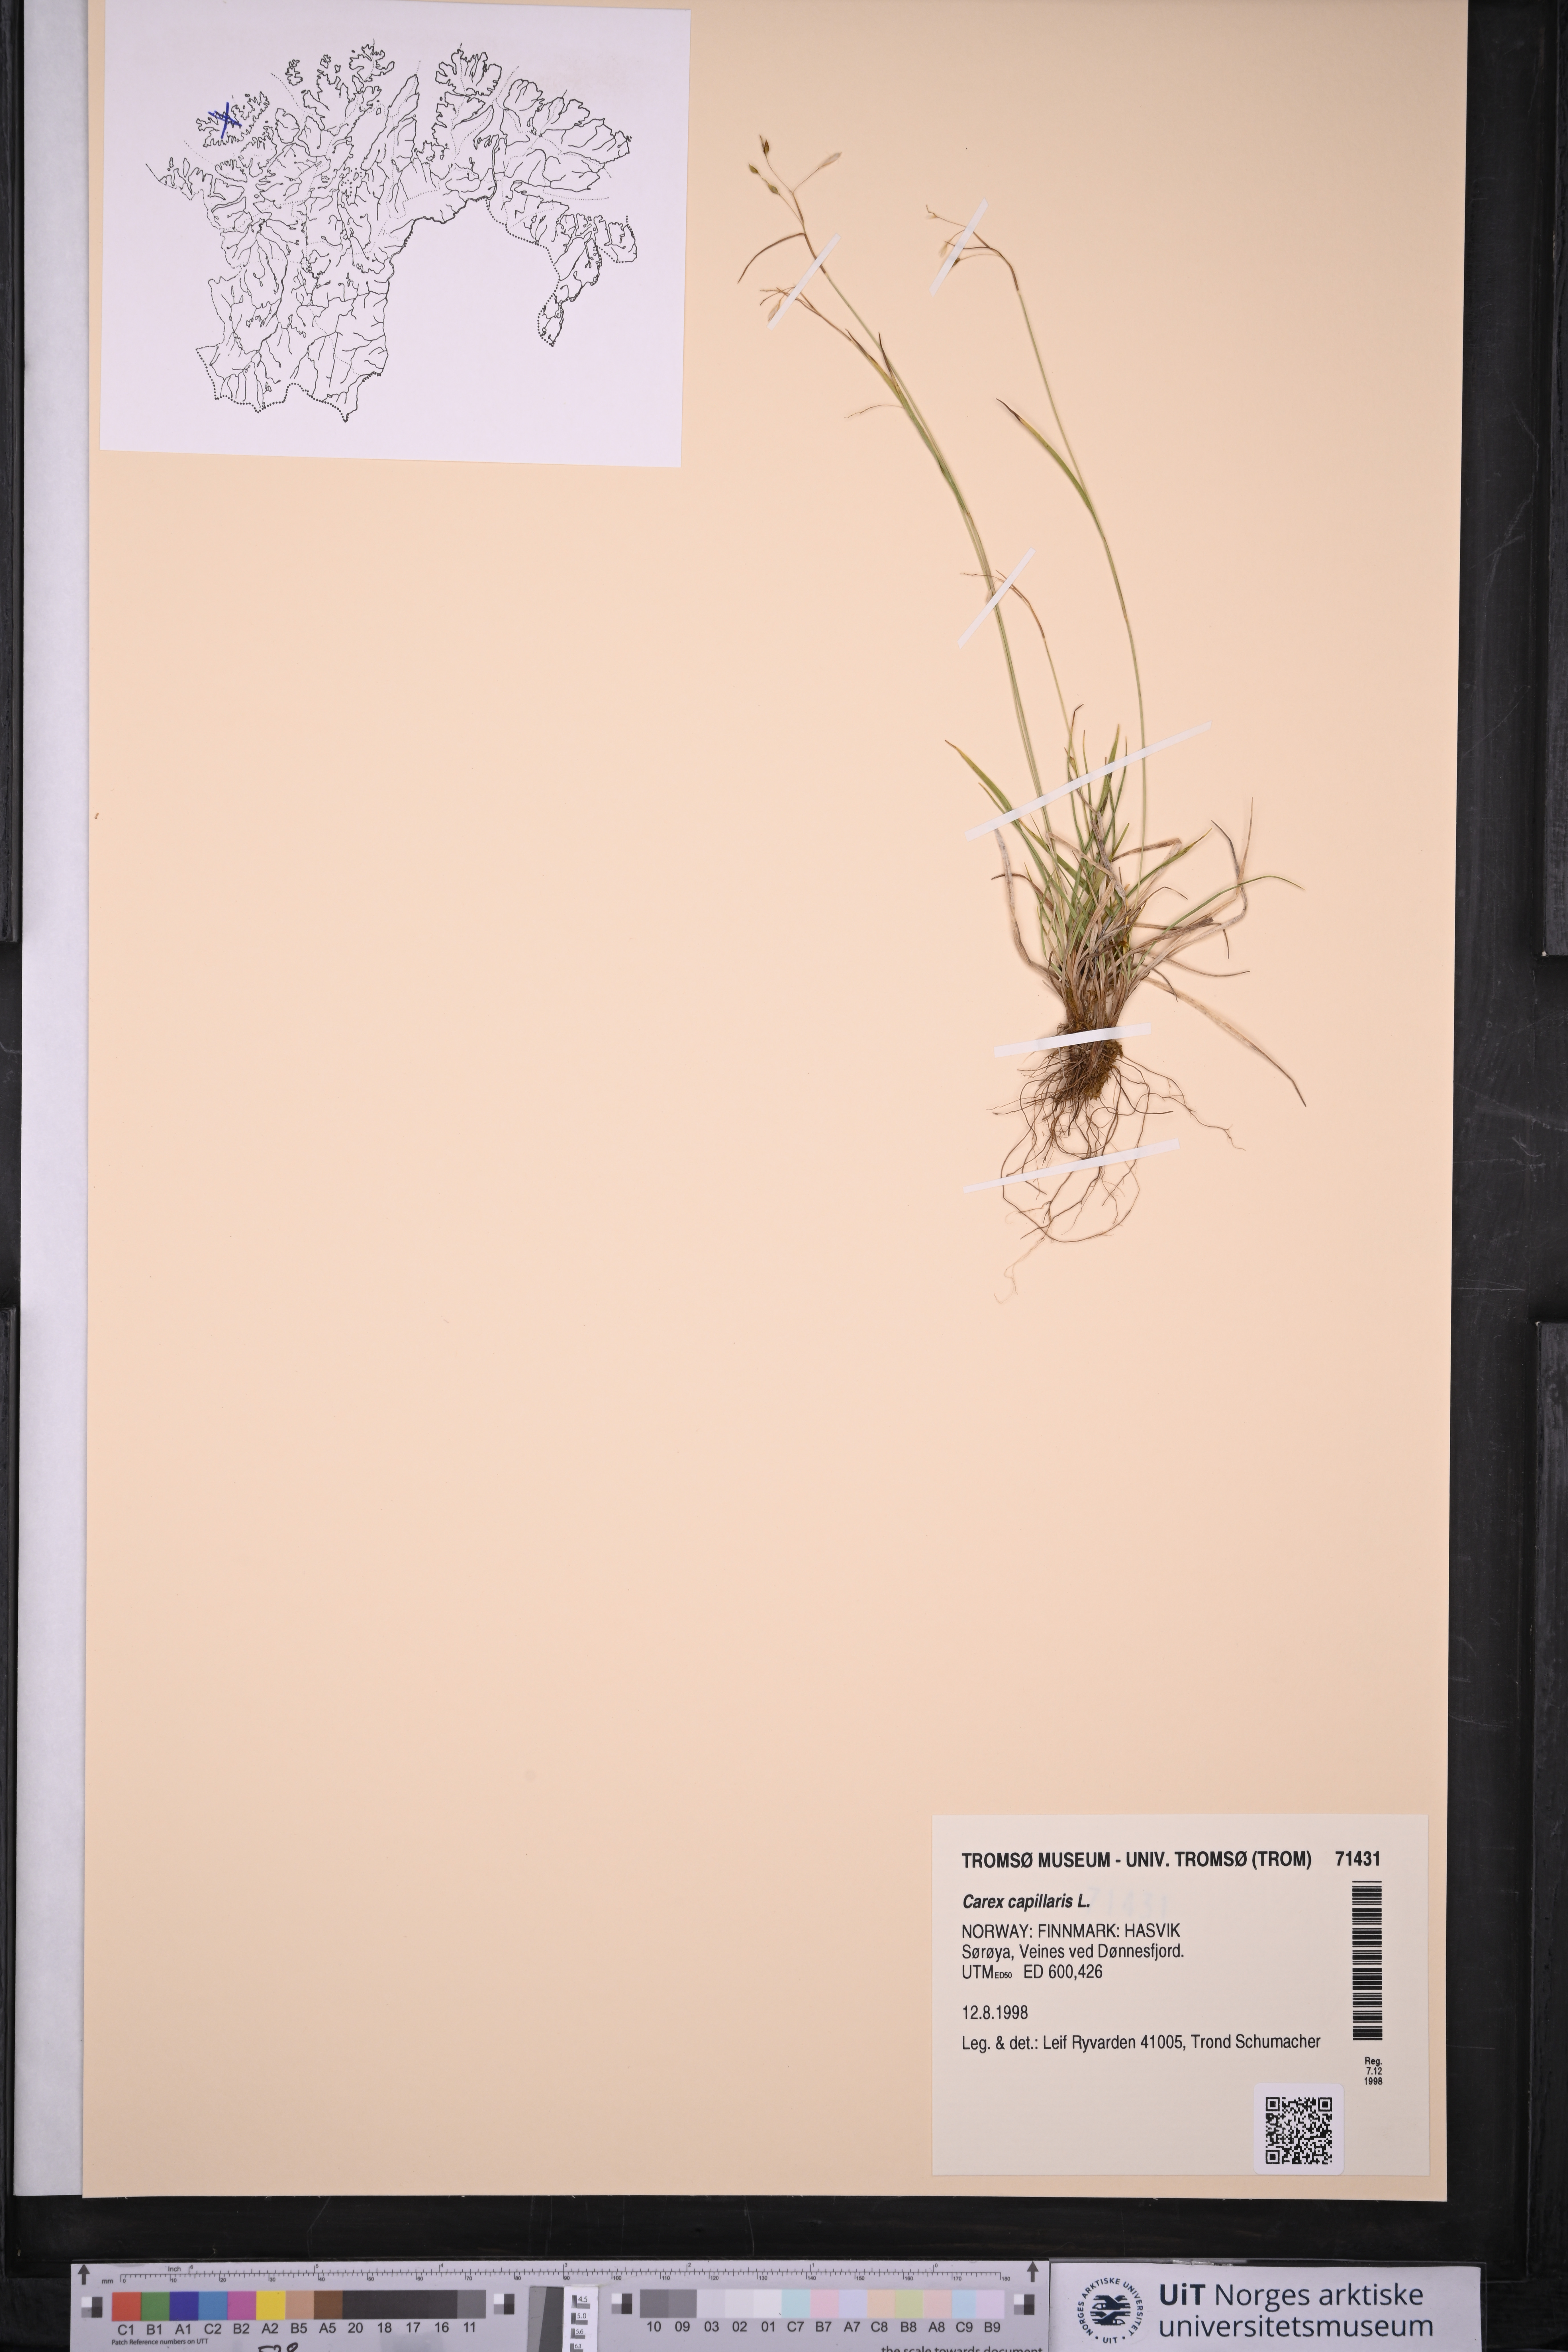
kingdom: Plantae
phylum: Tracheophyta
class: Liliopsida
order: Poales
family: Cyperaceae
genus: Carex
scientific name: Carex capillaris
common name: Hair sedge
